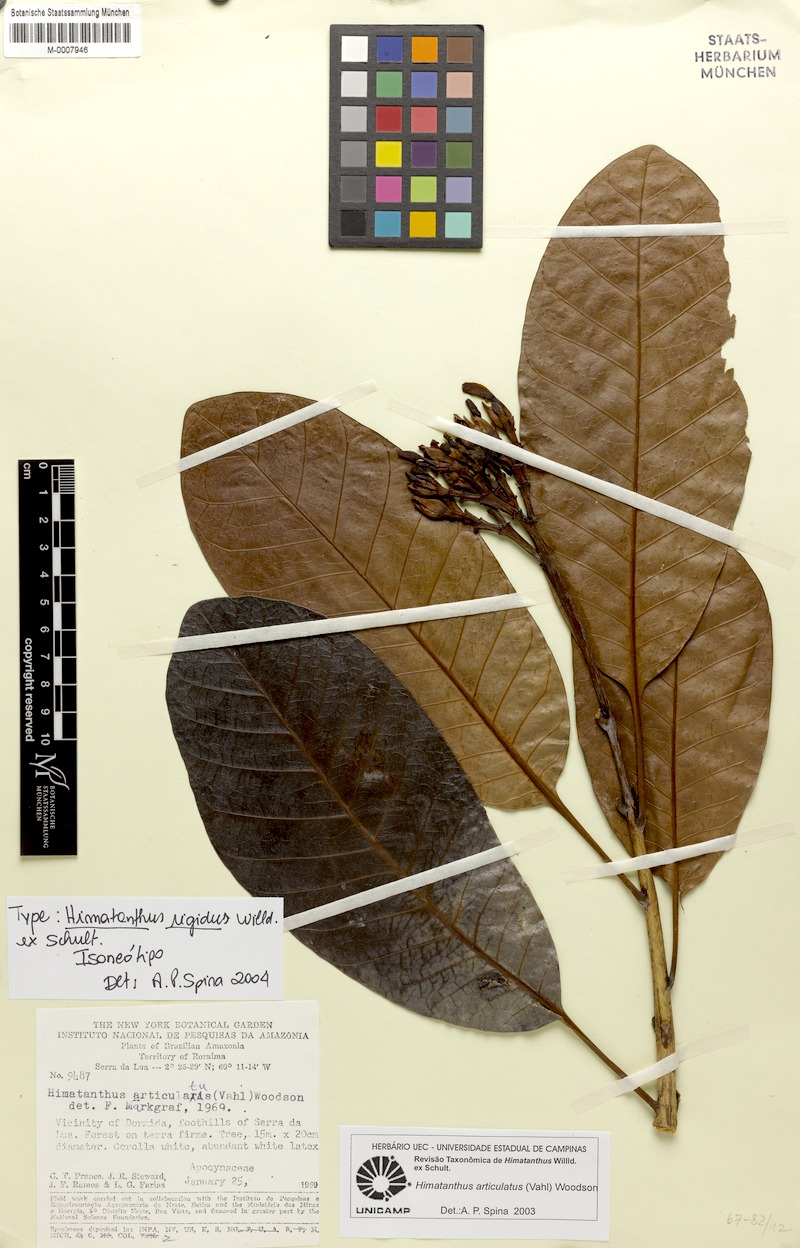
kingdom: Plantae
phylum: Tracheophyta
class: Magnoliopsida
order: Gentianales
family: Apocynaceae
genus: Himatanthus
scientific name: Himatanthus articulatus
